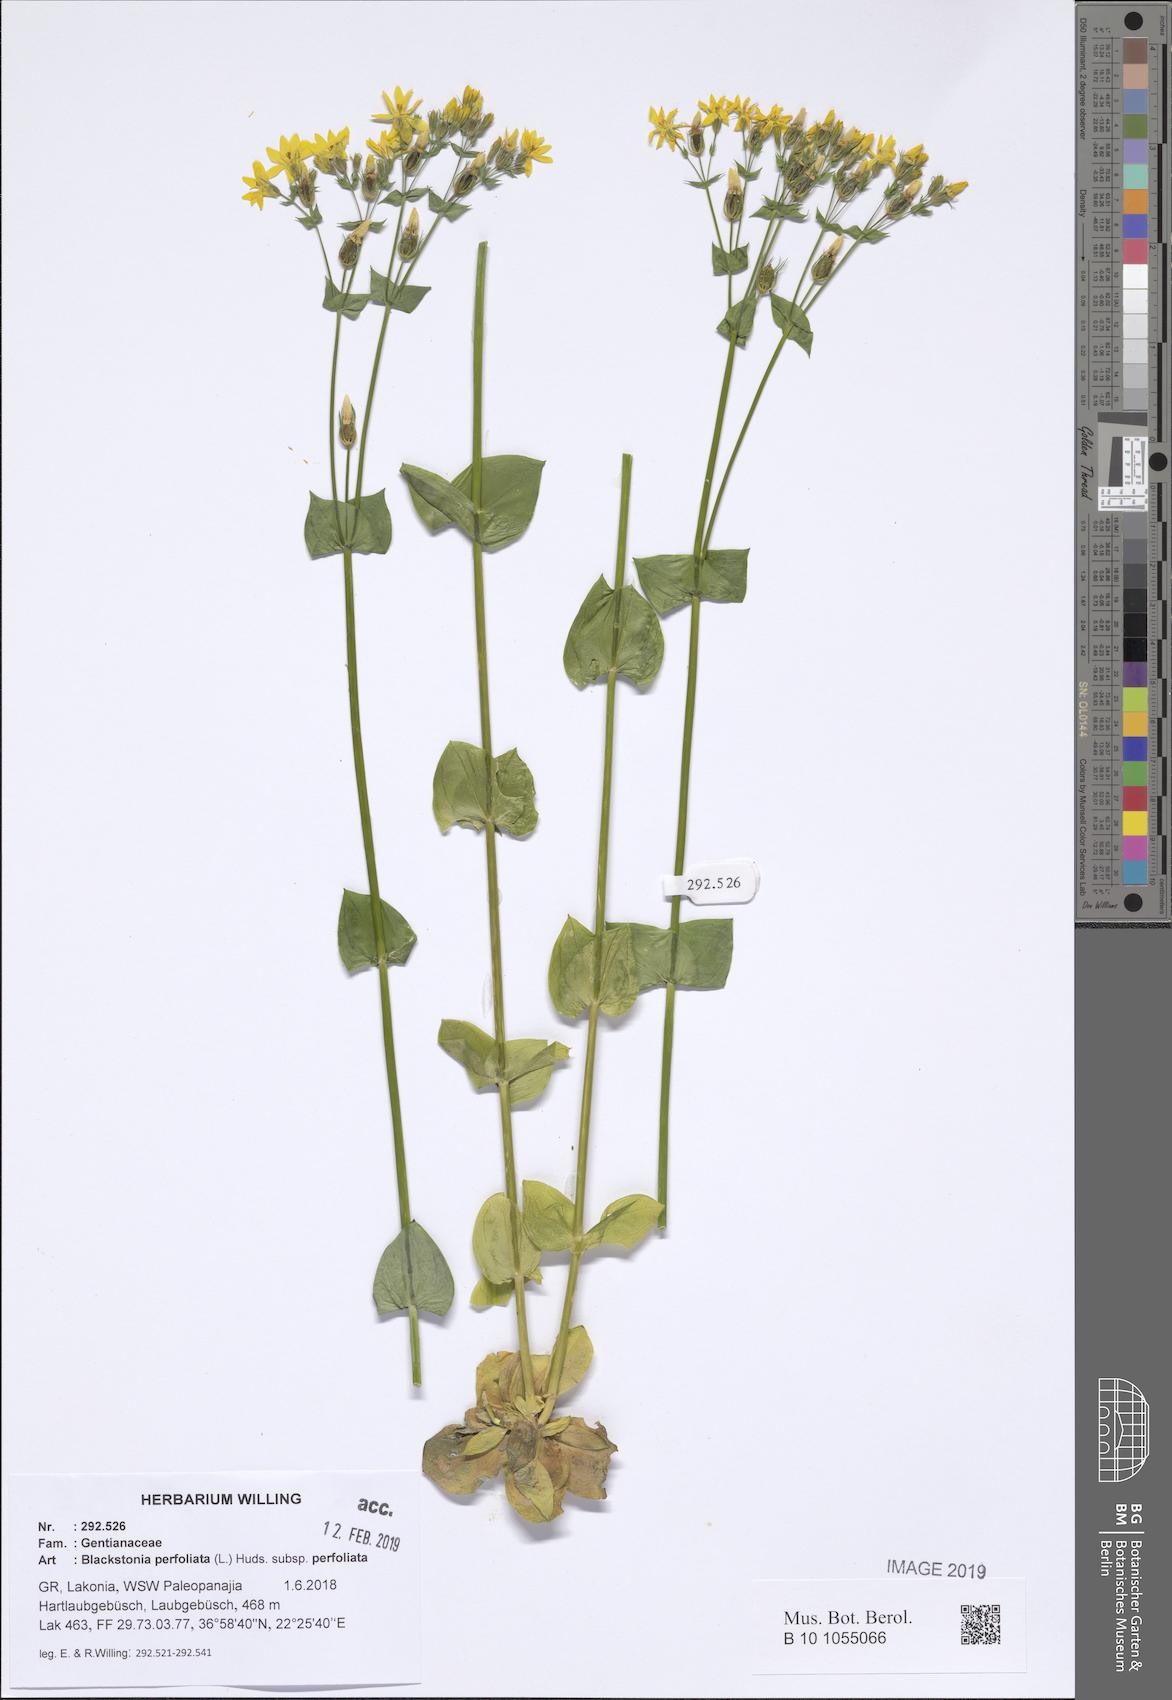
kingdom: Plantae
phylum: Tracheophyta
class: Magnoliopsida
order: Gentianales
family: Gentianaceae
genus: Blackstonia
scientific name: Blackstonia perfoliata
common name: Yellow-wort
